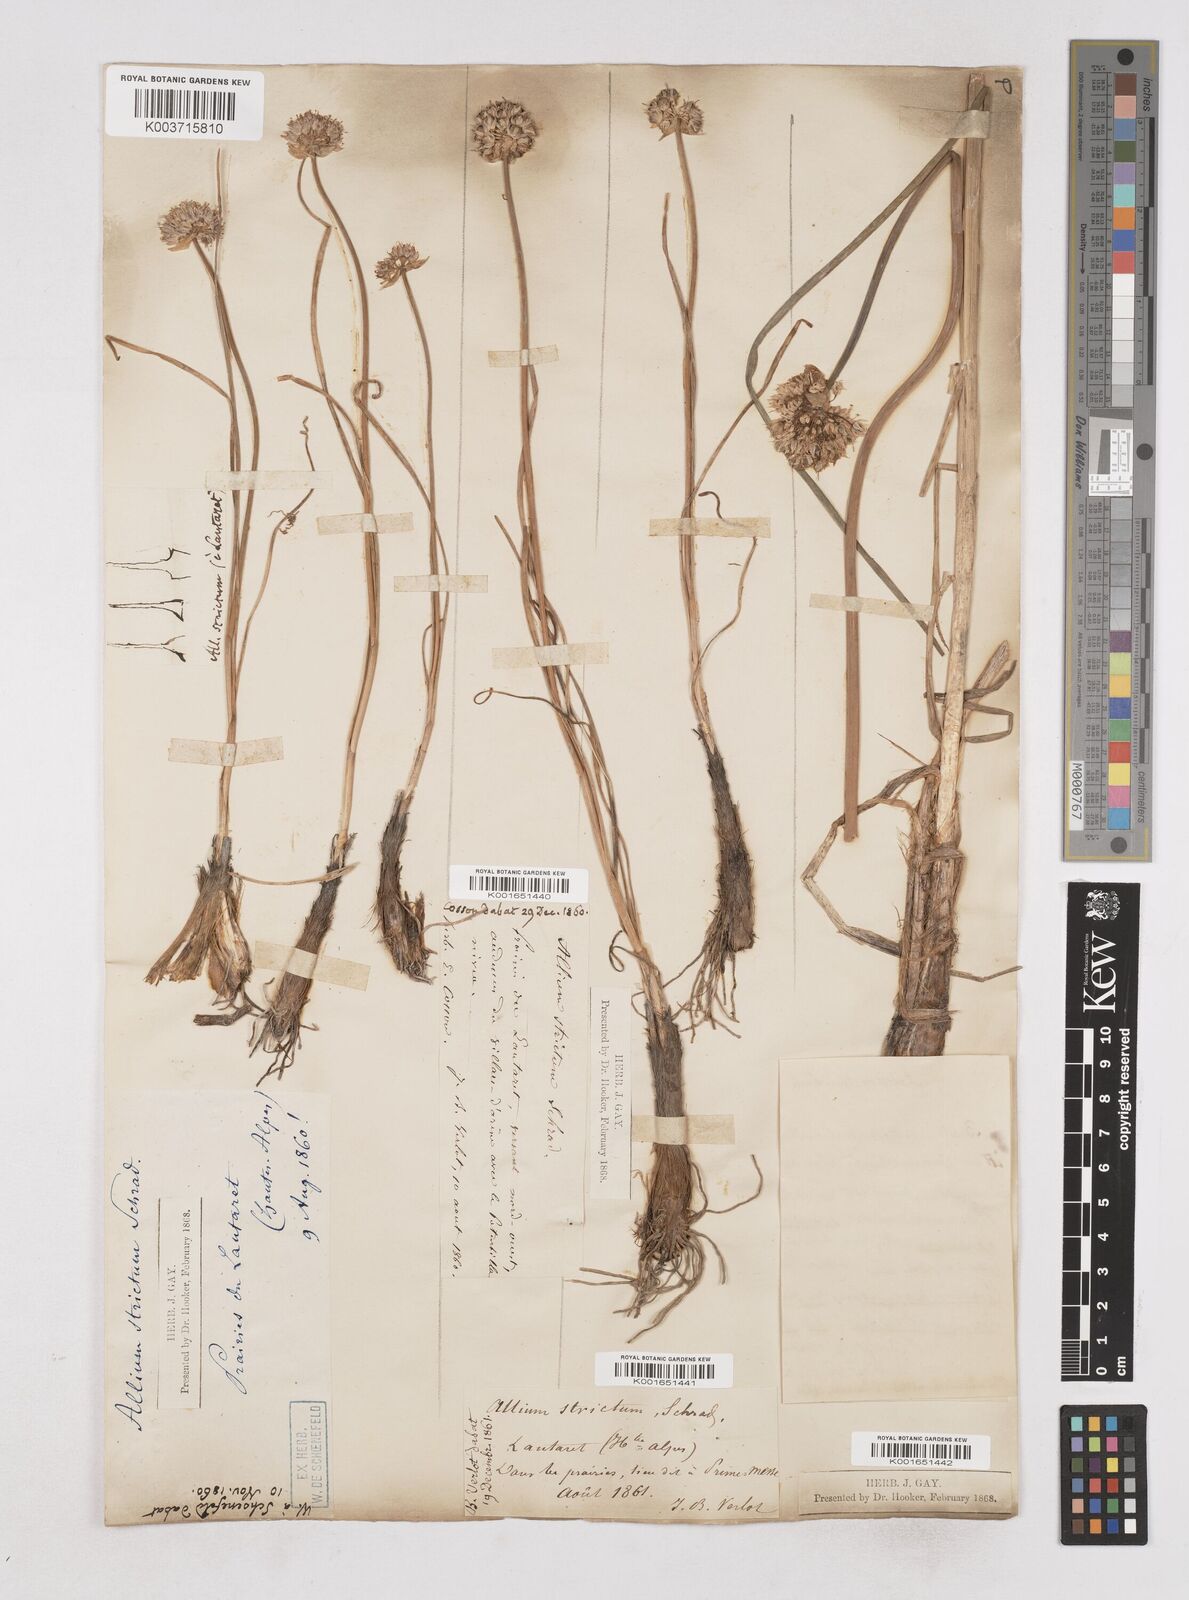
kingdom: Plantae
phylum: Tracheophyta
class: Liliopsida
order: Asparagales
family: Amaryllidaceae
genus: Allium
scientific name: Allium strictum
